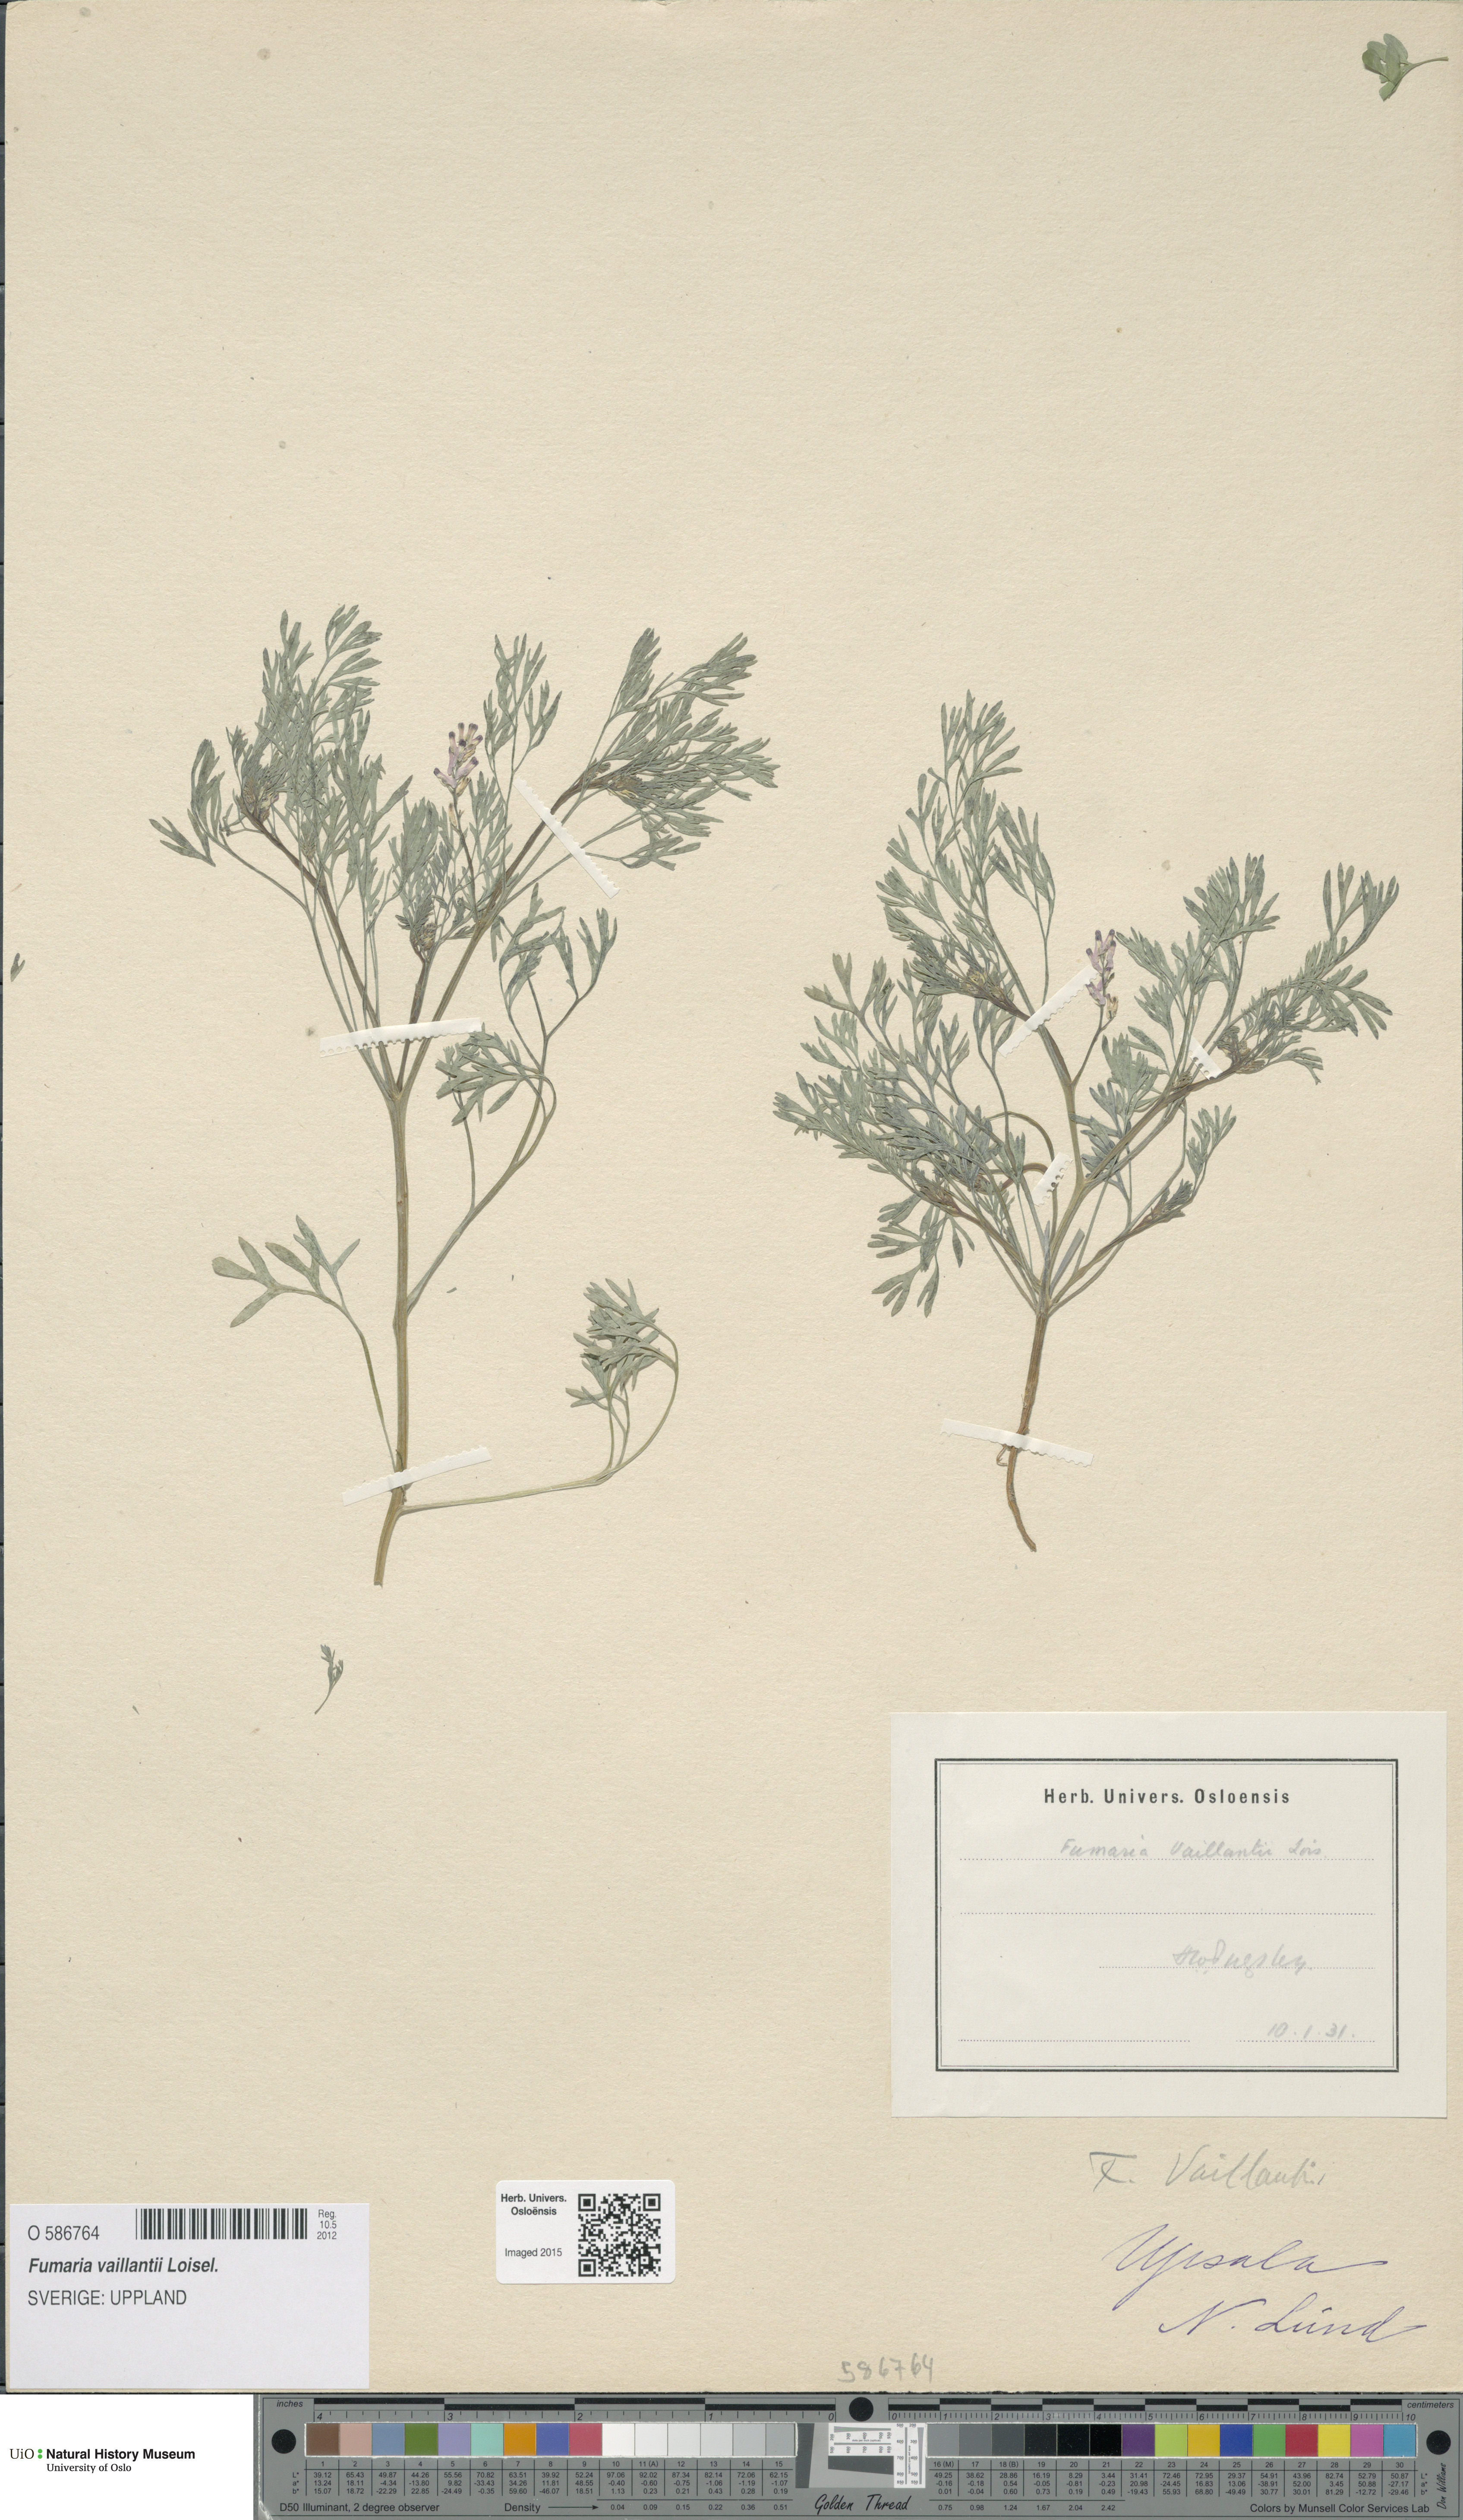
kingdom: Plantae
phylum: Tracheophyta
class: Magnoliopsida
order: Ranunculales
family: Papaveraceae
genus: Fumaria
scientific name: Fumaria vaillantii
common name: Few-flowered fumitory
